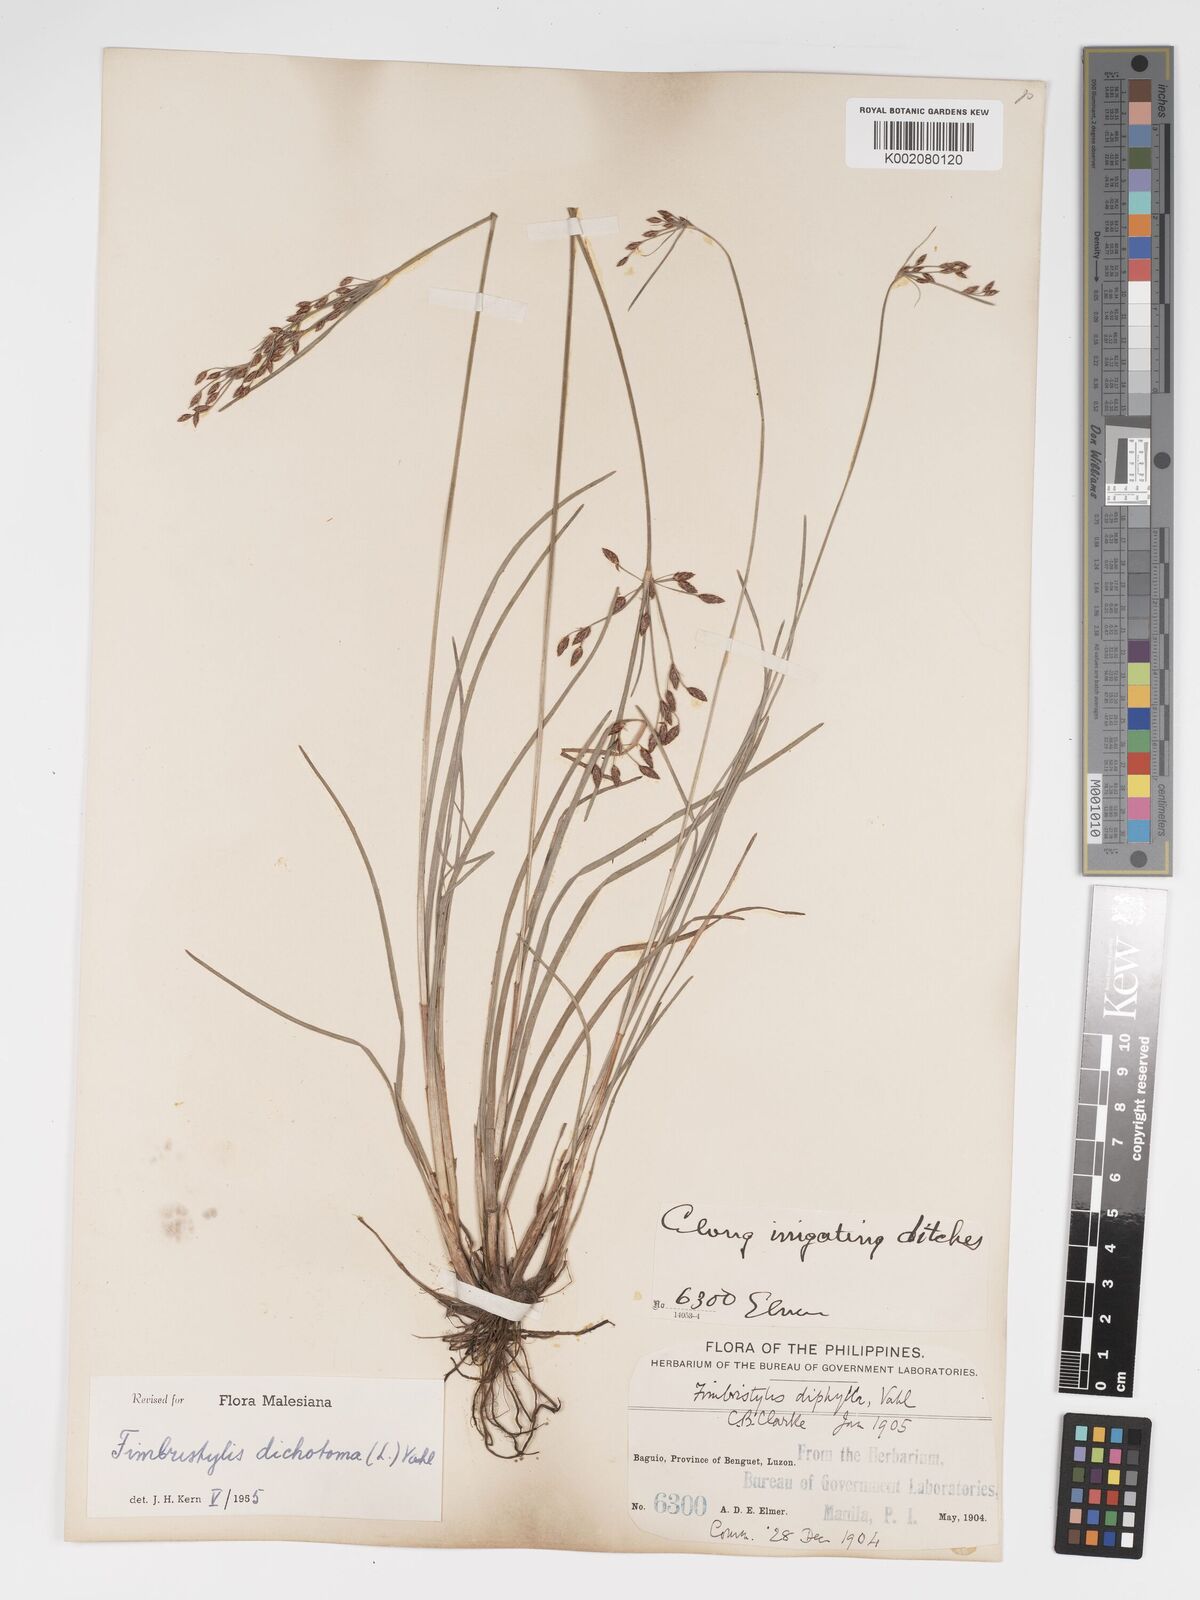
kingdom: Plantae
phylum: Tracheophyta
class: Liliopsida
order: Poales
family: Cyperaceae
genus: Fimbristylis
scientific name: Fimbristylis dichotoma
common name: Forked fimbry
